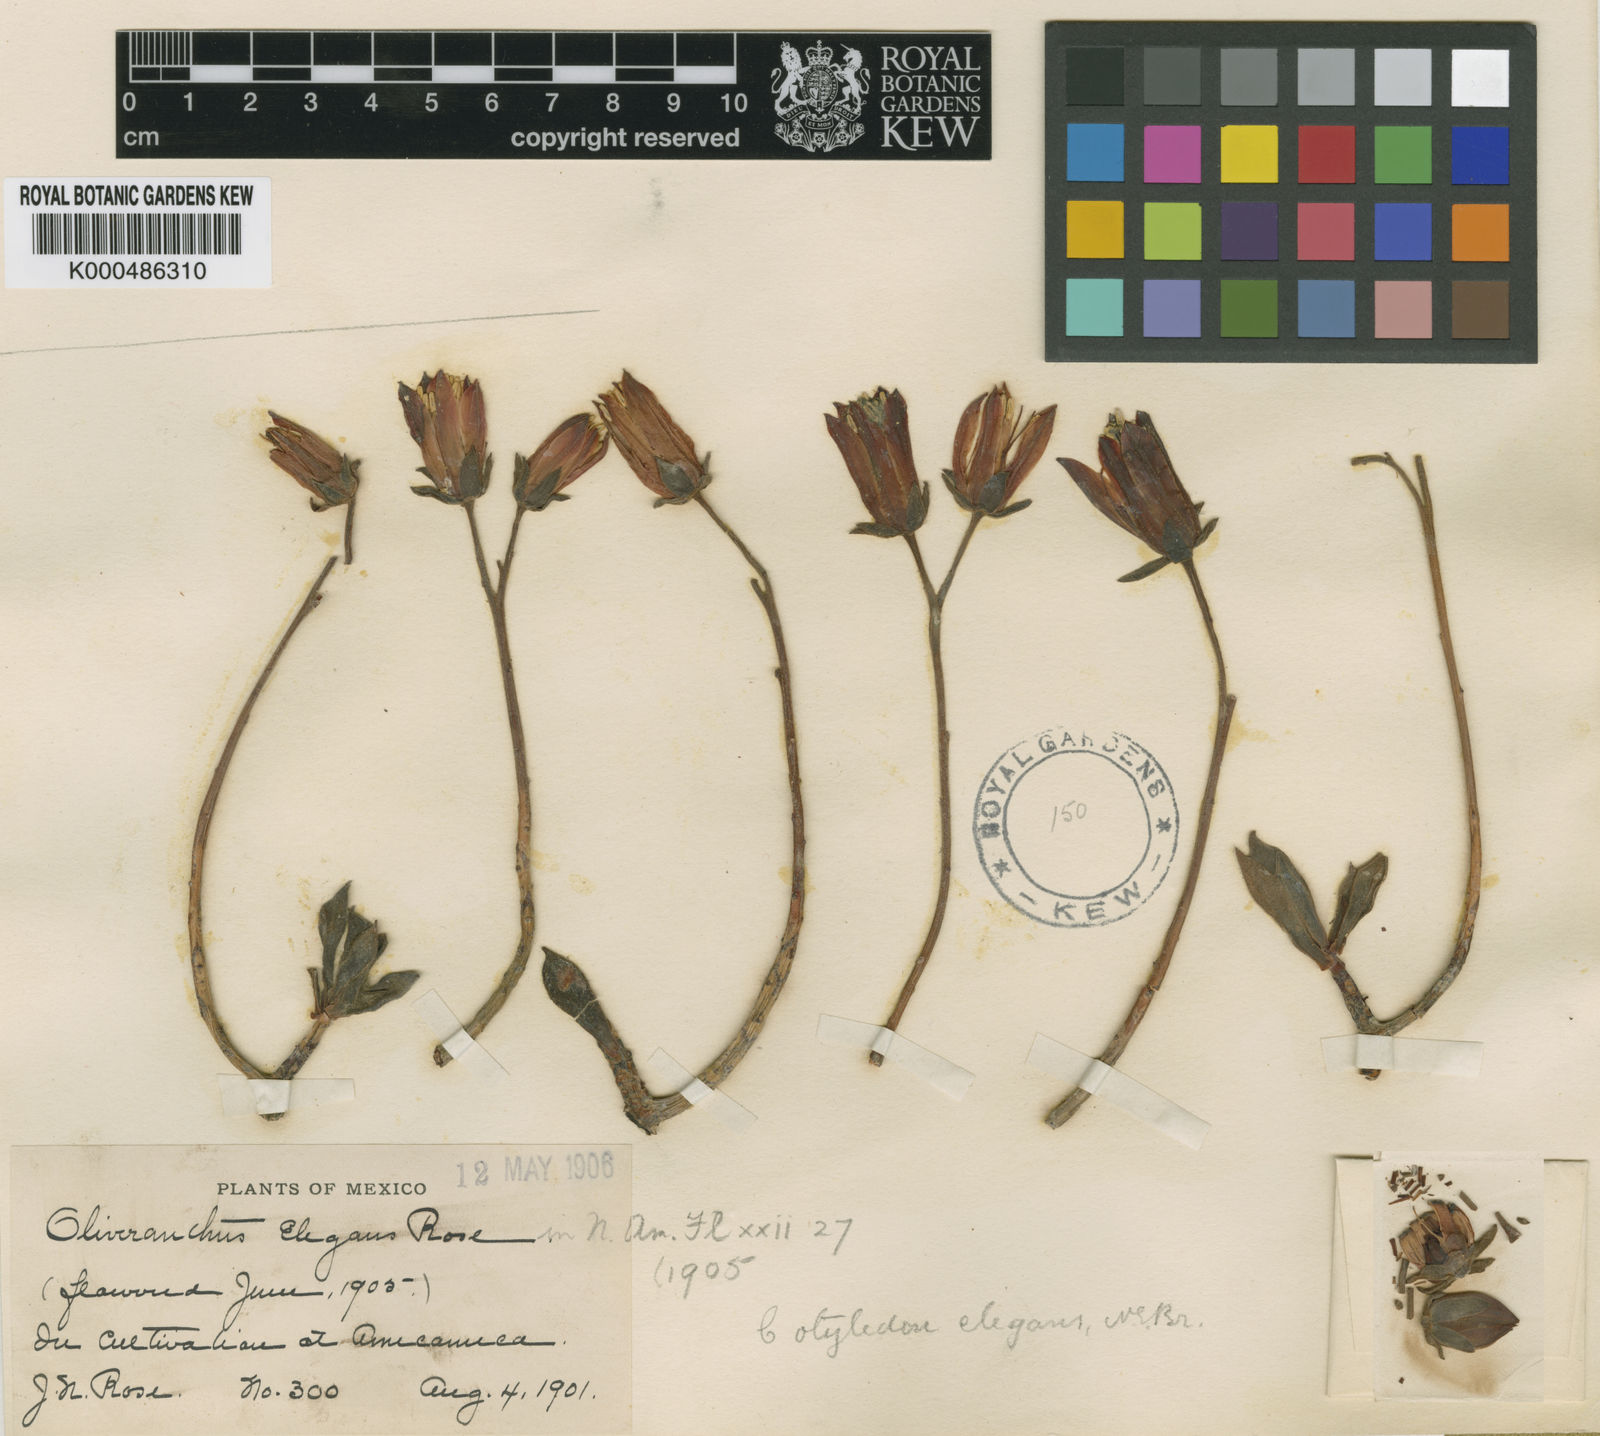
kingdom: Plantae
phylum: Tracheophyta
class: Magnoliopsida
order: Saxifragales
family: Crassulaceae
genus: Echeveria
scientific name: Echeveria harmsii
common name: Red echeveria
